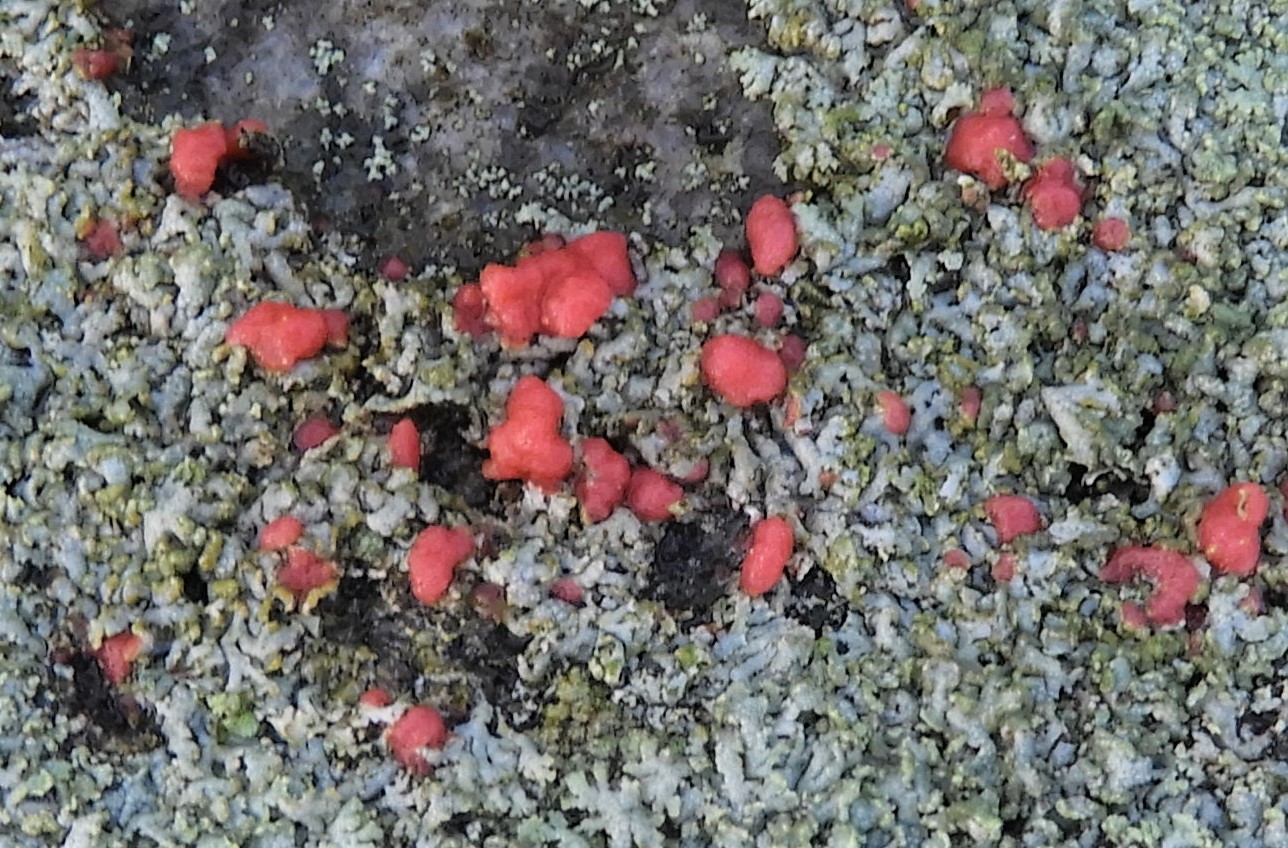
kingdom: Fungi
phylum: Ascomycota
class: Sordariomycetes
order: Hypocreales
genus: Illosporiopsis
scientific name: Illosporiopsis christiansenii
